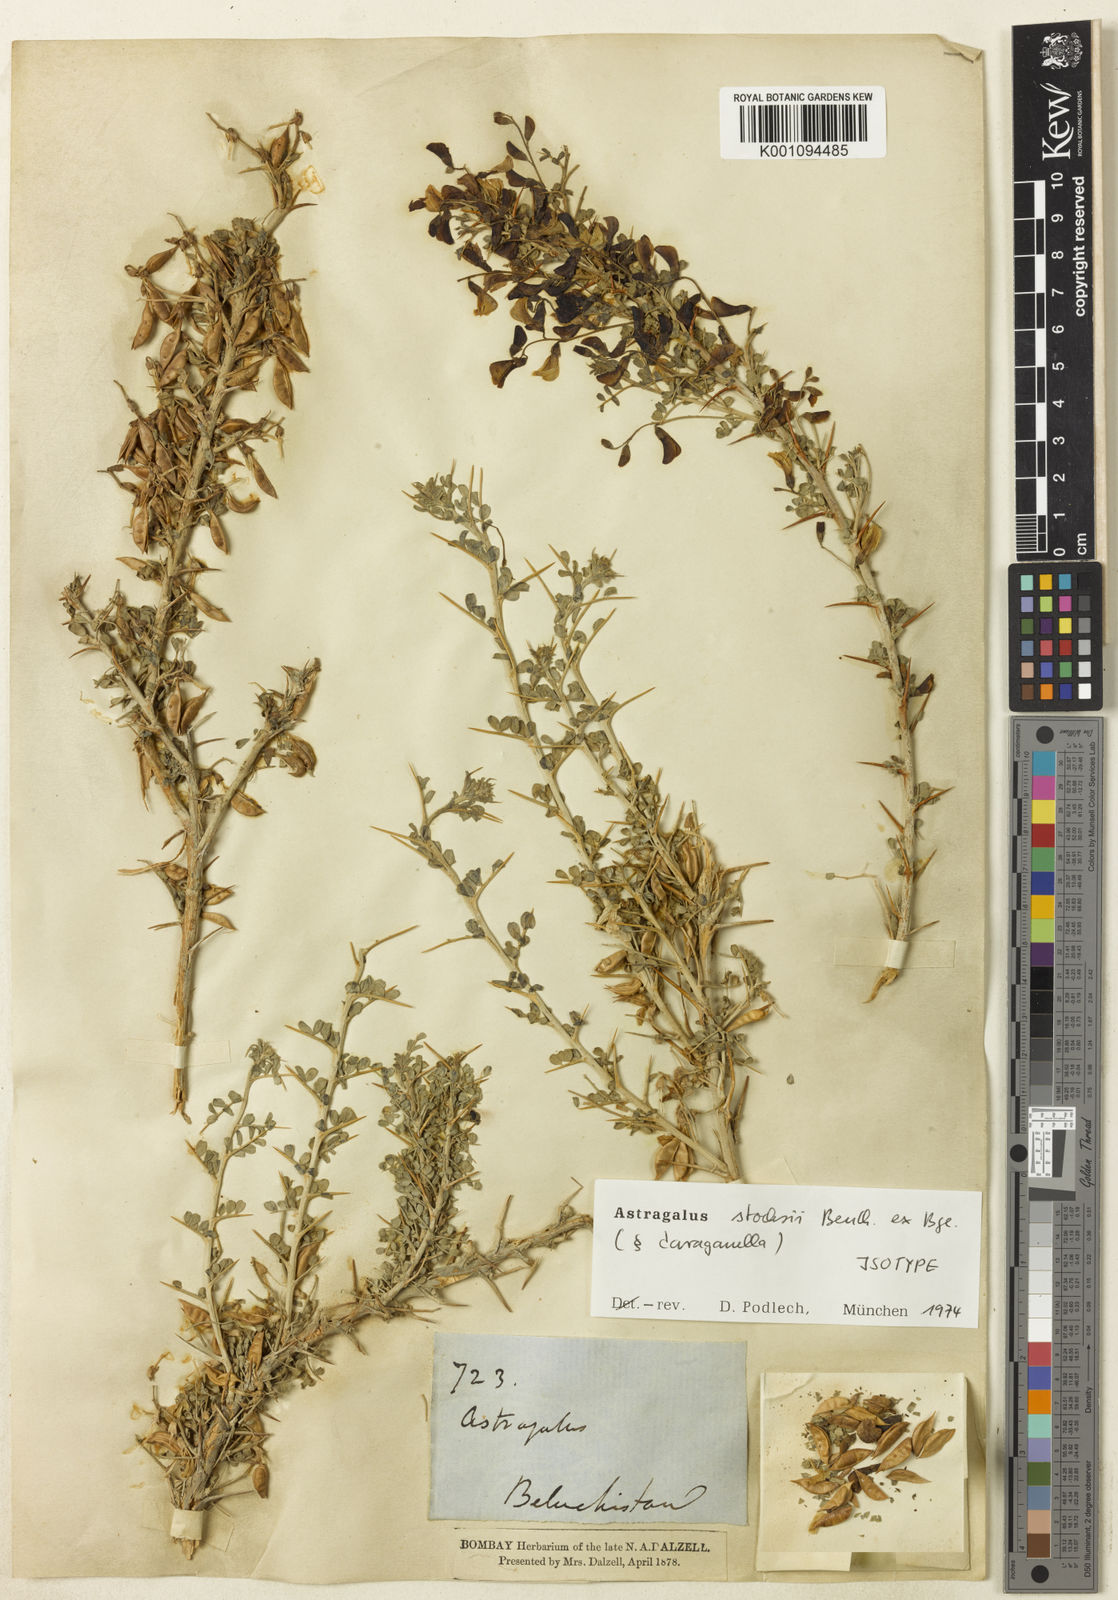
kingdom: Plantae
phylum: Tracheophyta
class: Magnoliopsida
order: Fabales
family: Fabaceae
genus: Astragalus
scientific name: Astragalus
